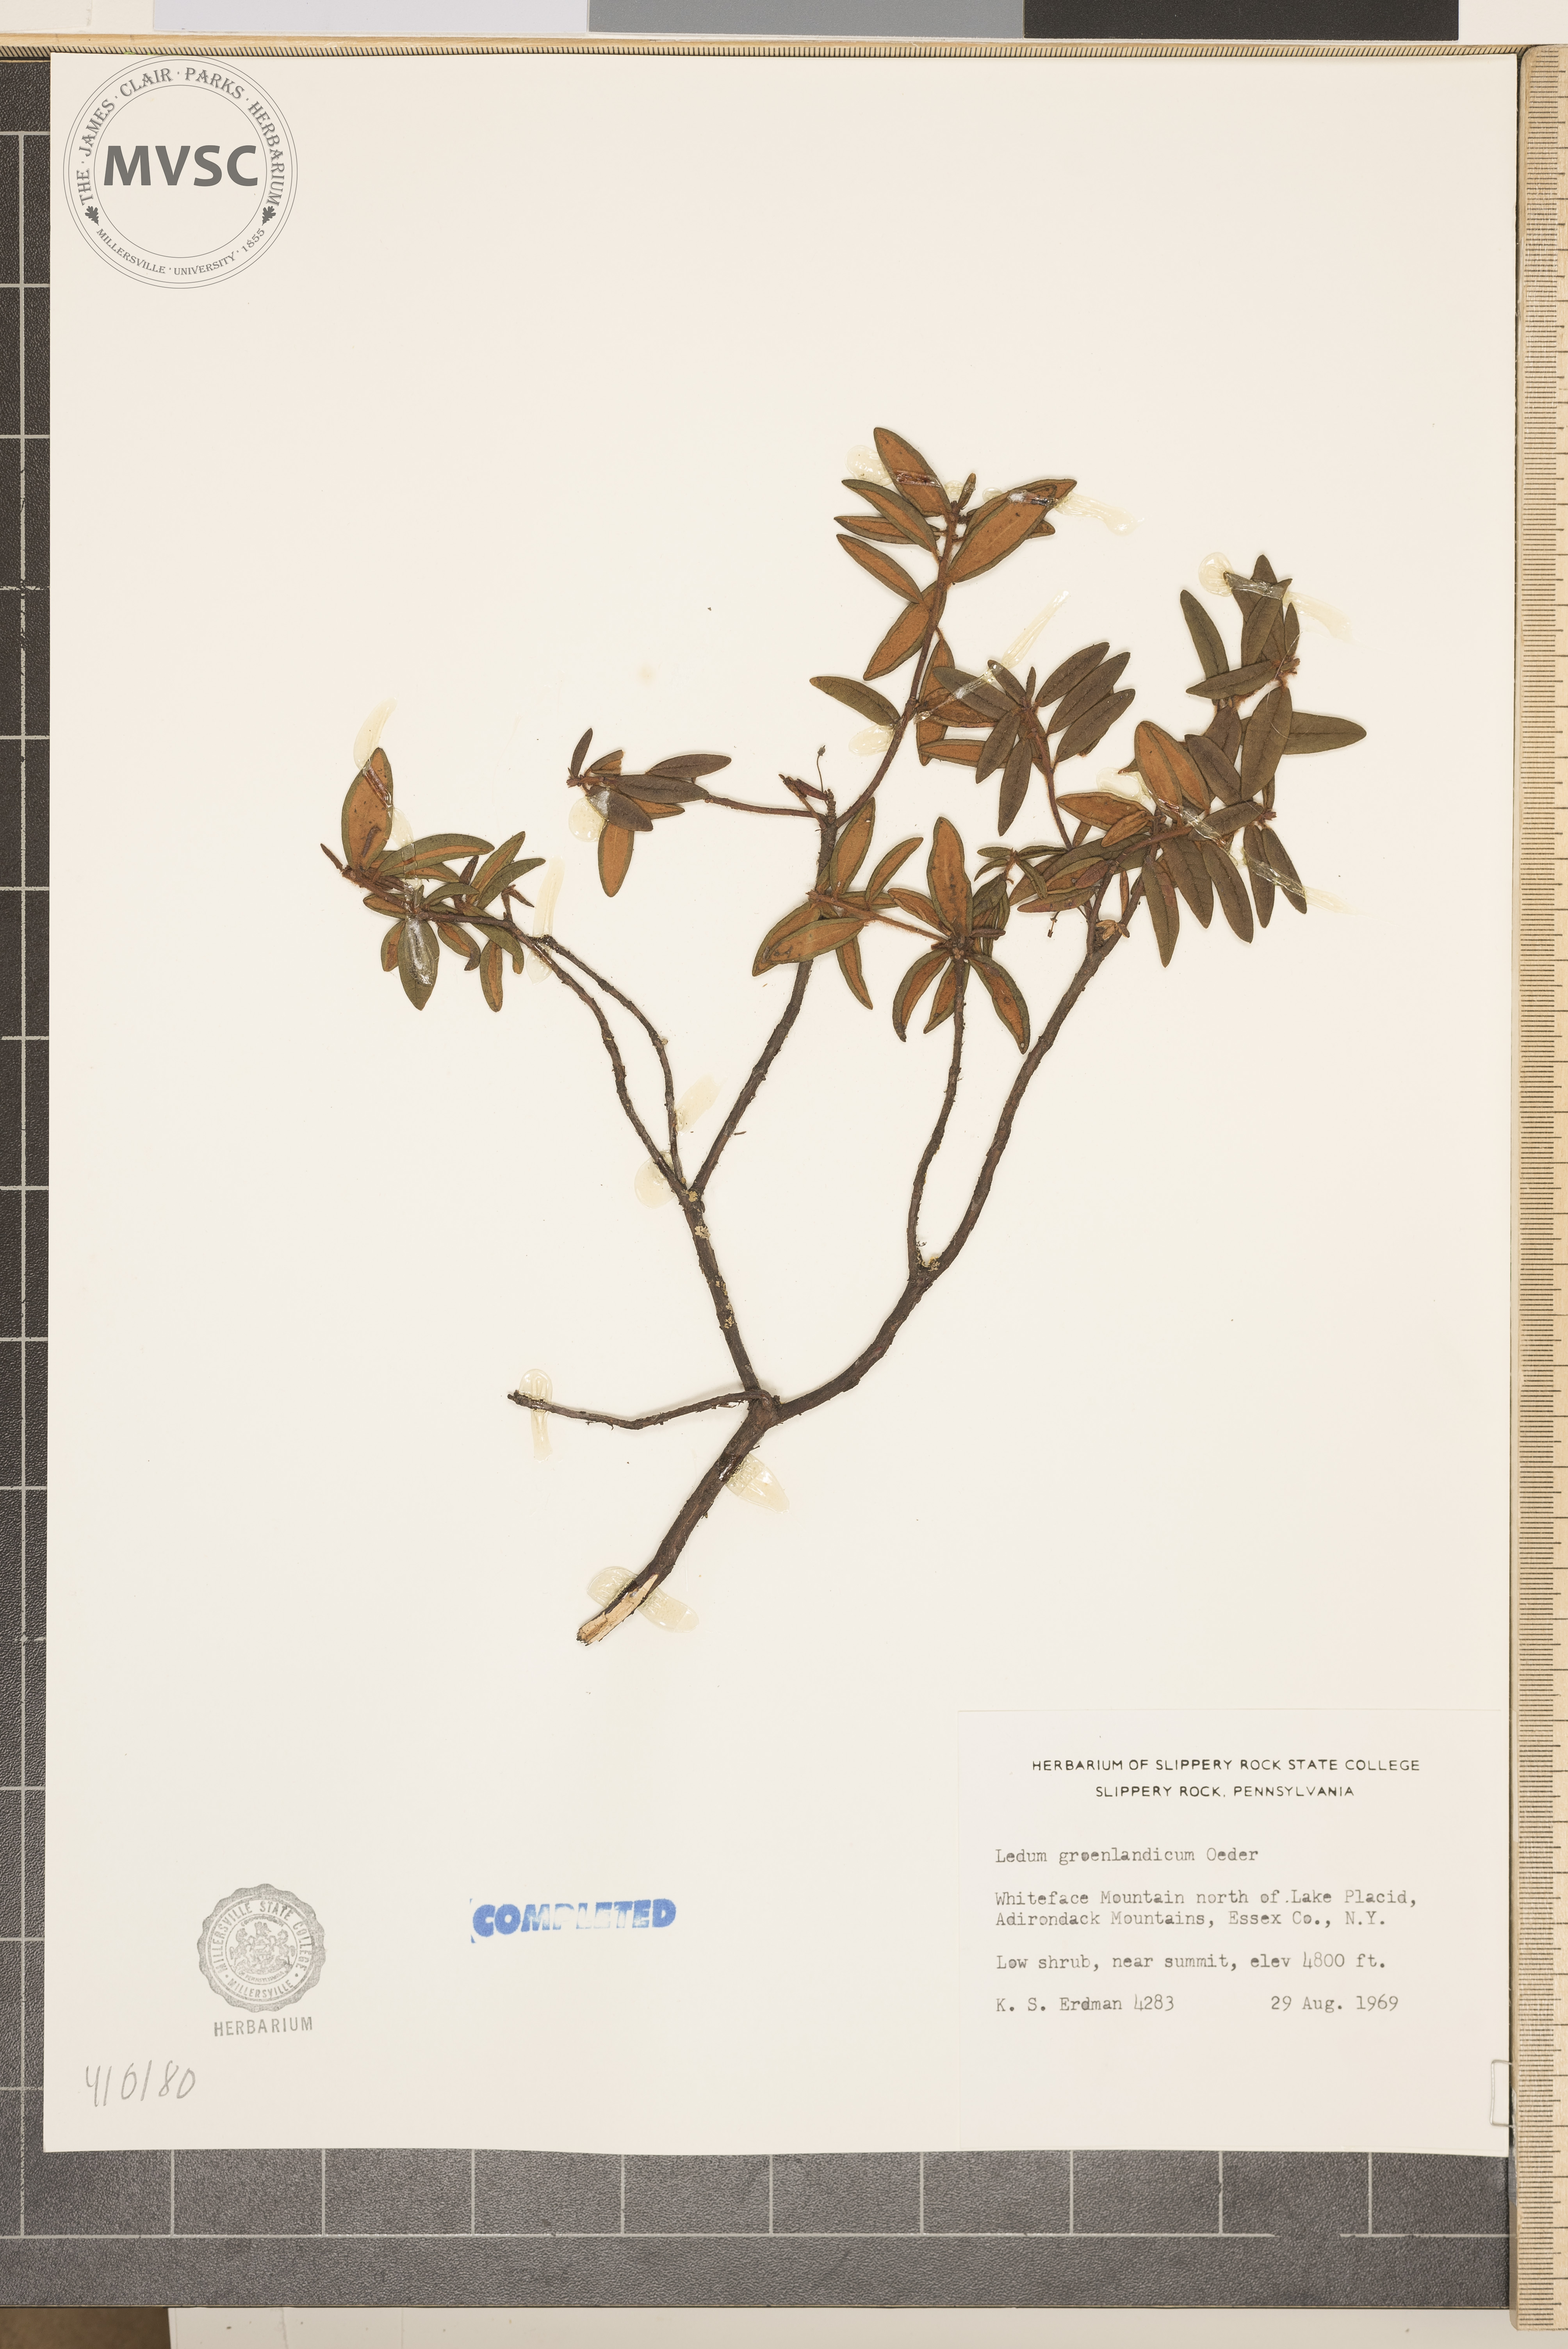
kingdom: Plantae
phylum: Tracheophyta
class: Magnoliopsida
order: Ericales
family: Ericaceae
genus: Rhododendron
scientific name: Rhododendron groenlandicum
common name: Bog labrador tea
